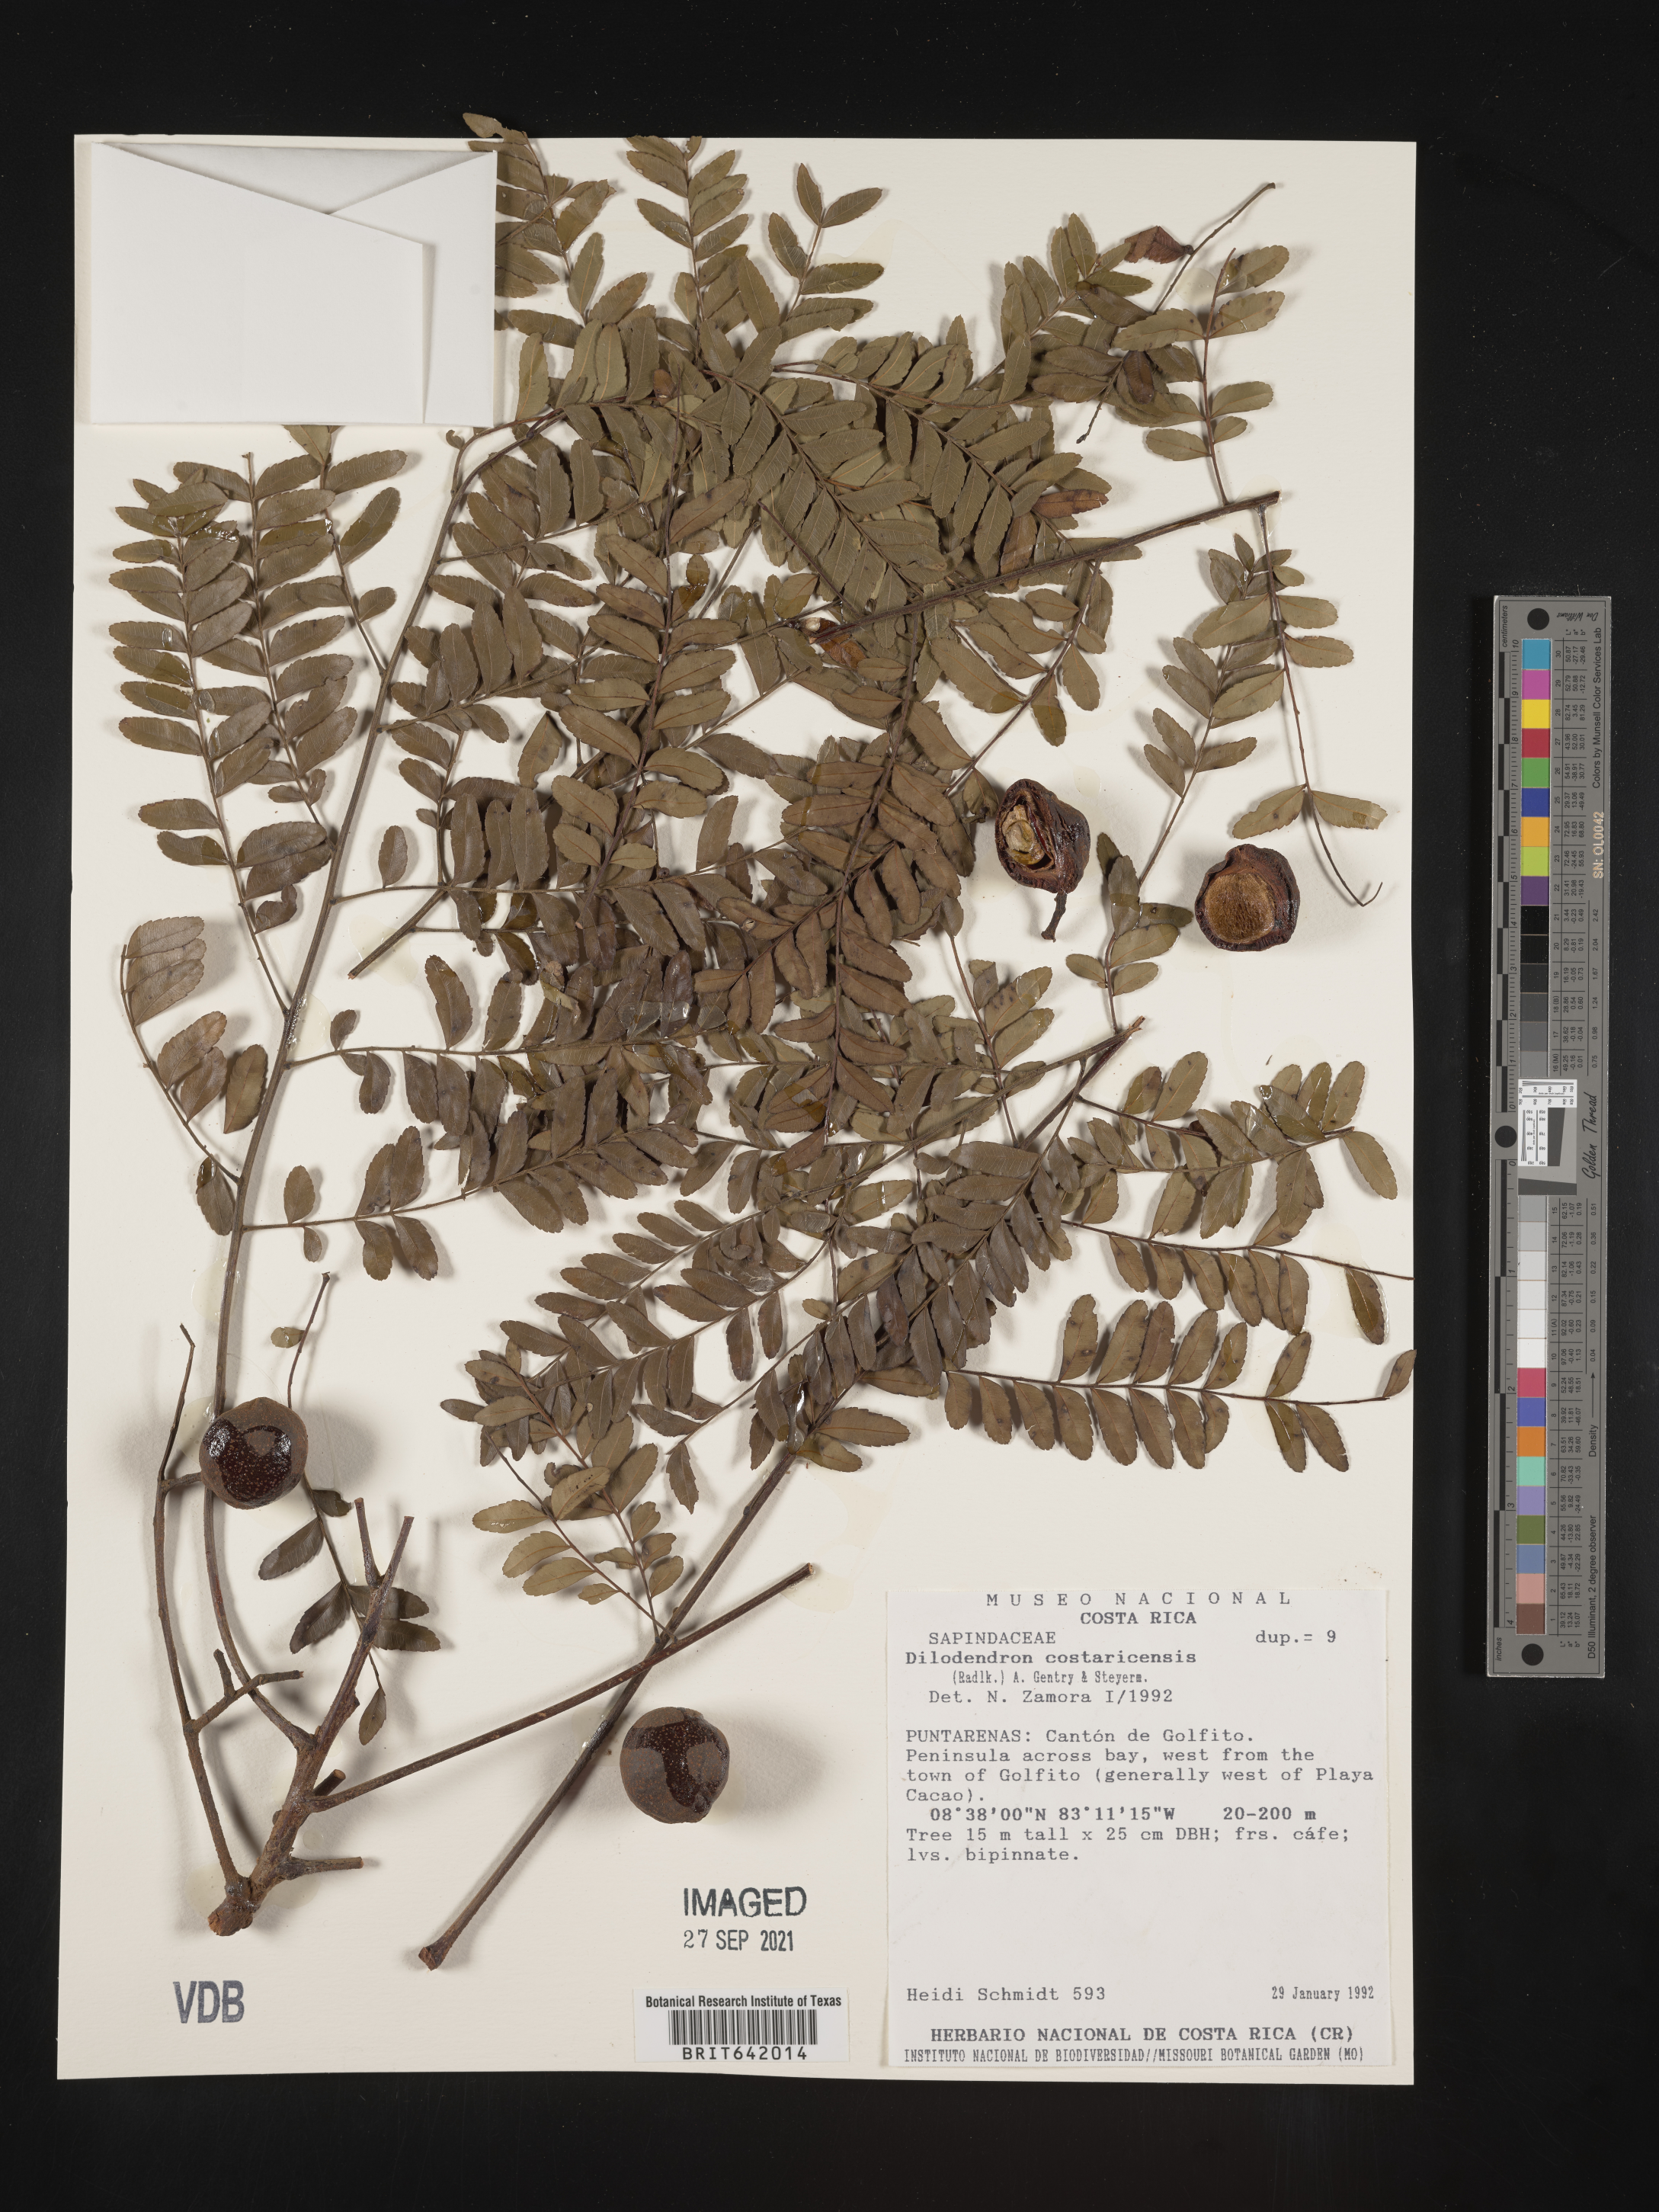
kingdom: Plantae
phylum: Tracheophyta
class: Magnoliopsida
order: Sapindales
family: Sapindaceae
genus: Dilodendron
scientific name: Dilodendron
